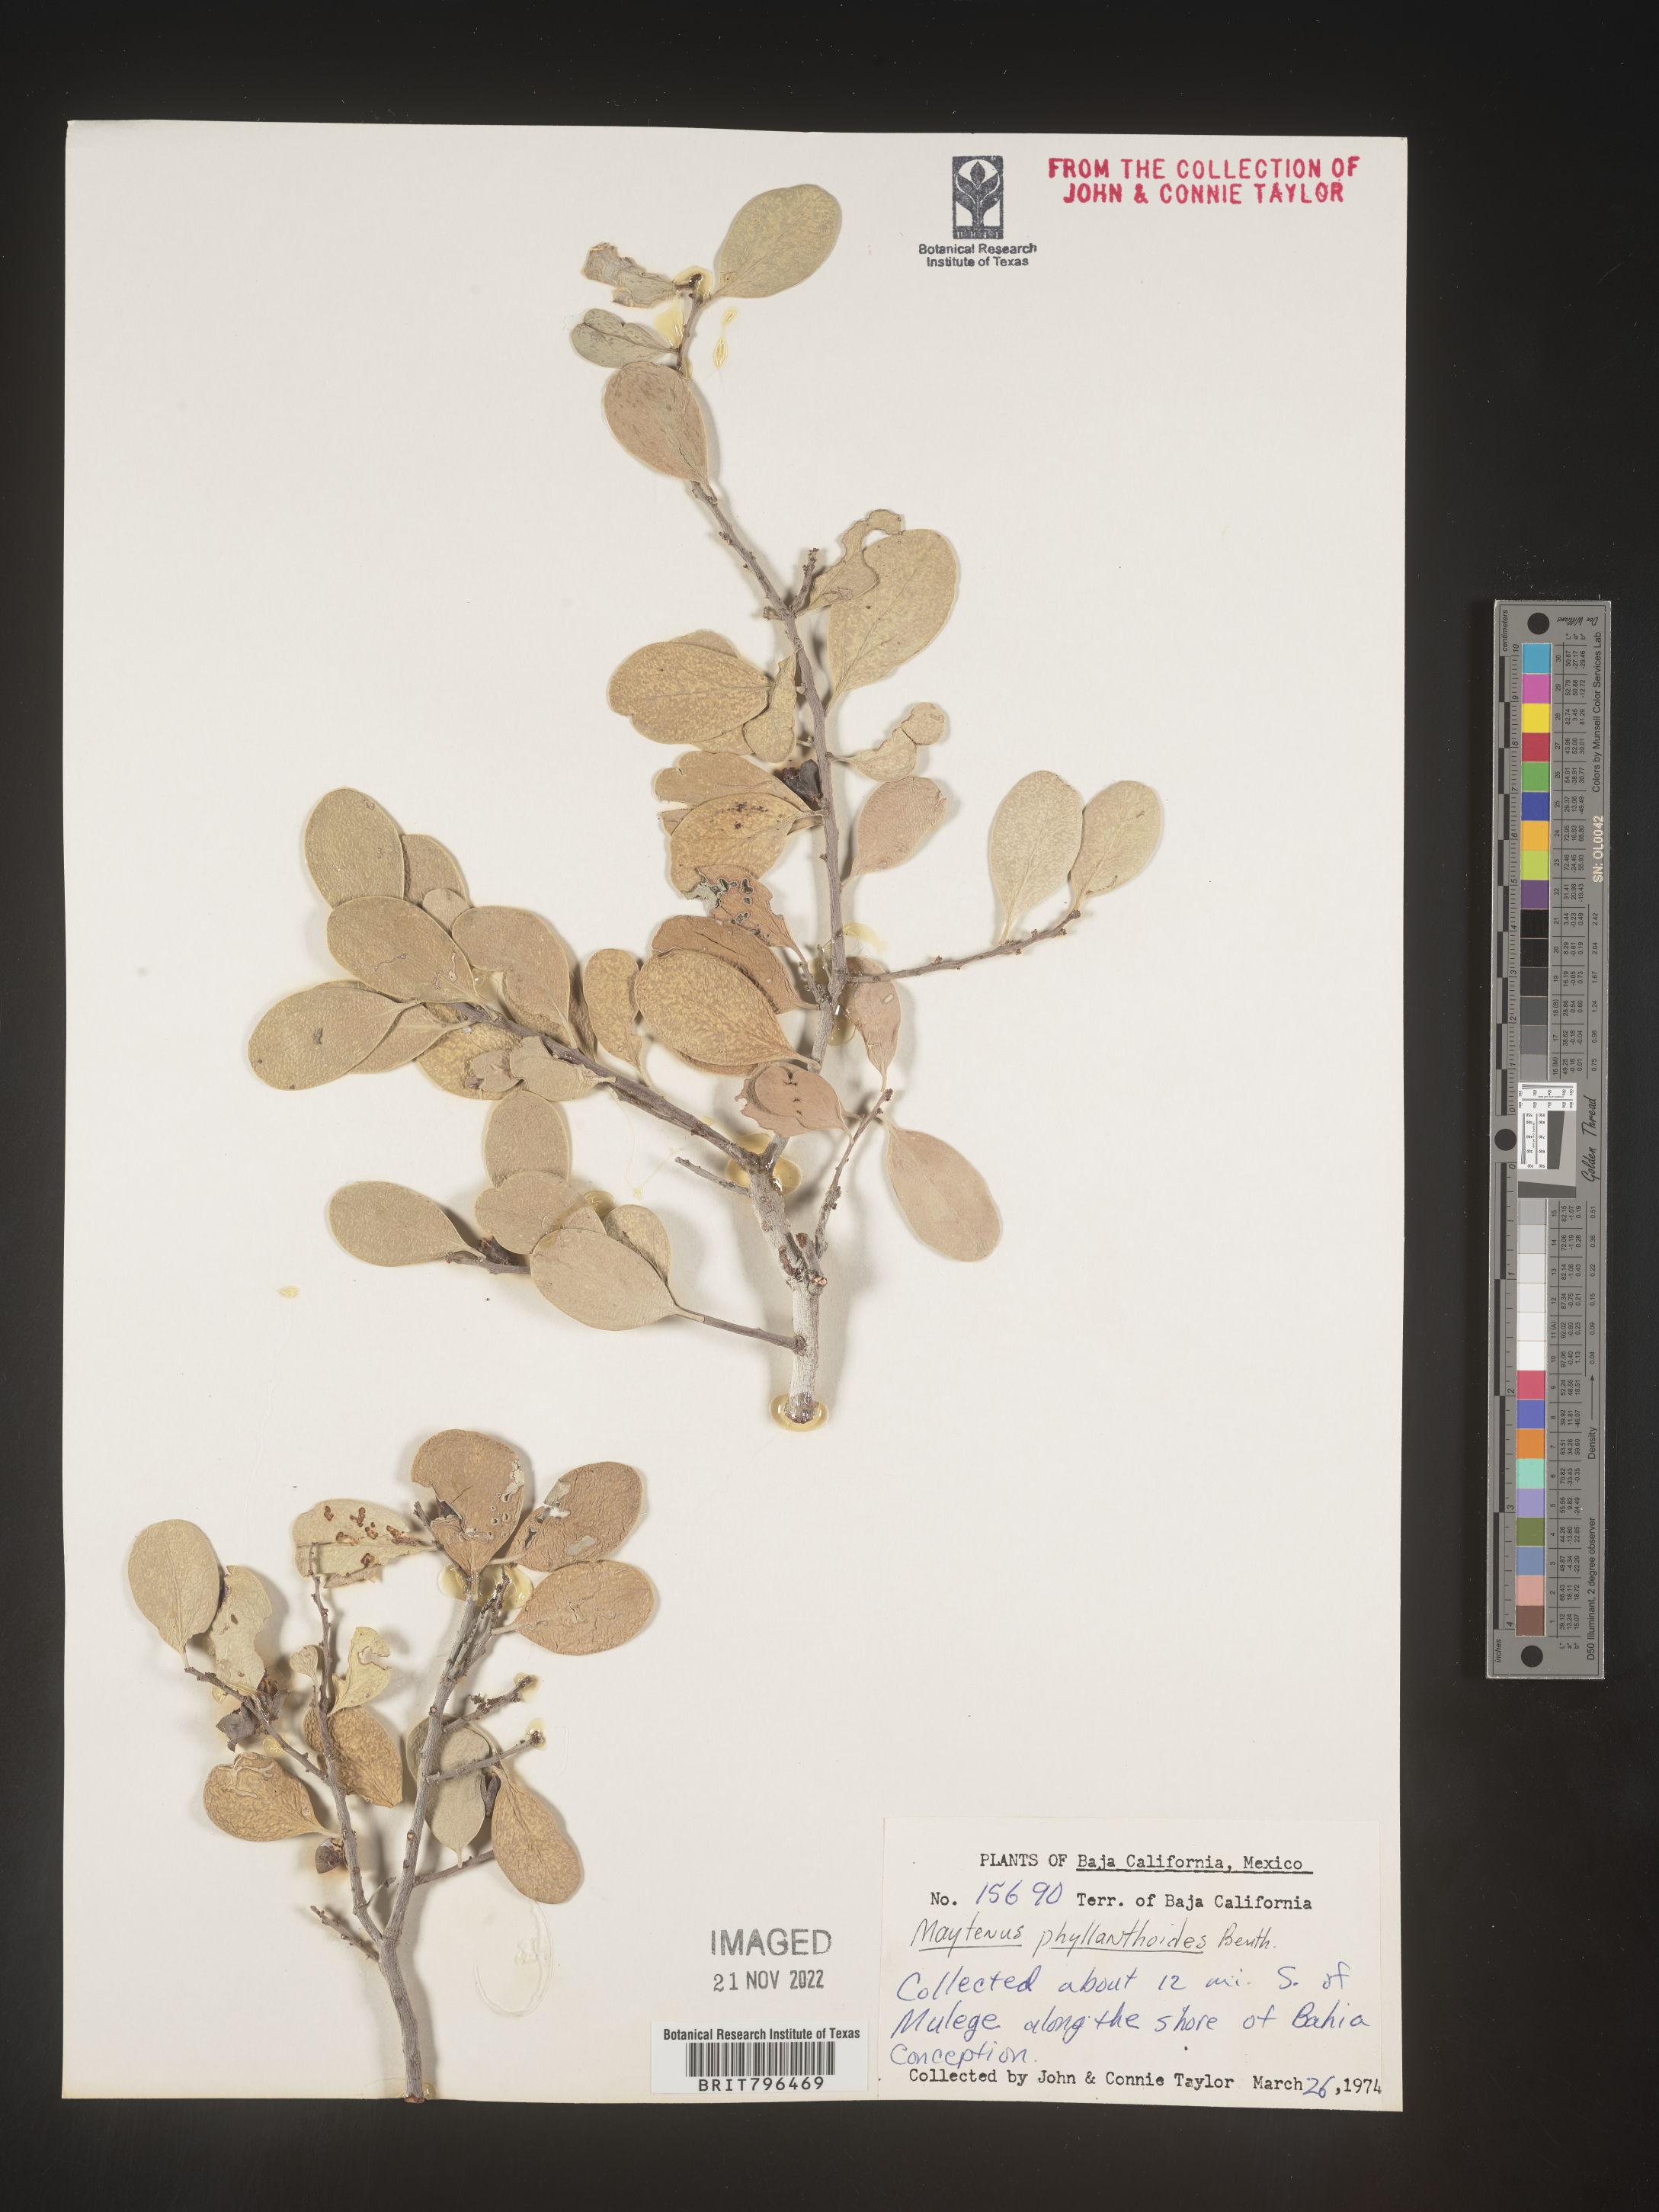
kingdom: Plantae
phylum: Tracheophyta
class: Magnoliopsida
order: Celastrales
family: Celastraceae
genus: Maytenus
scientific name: Maytenus
